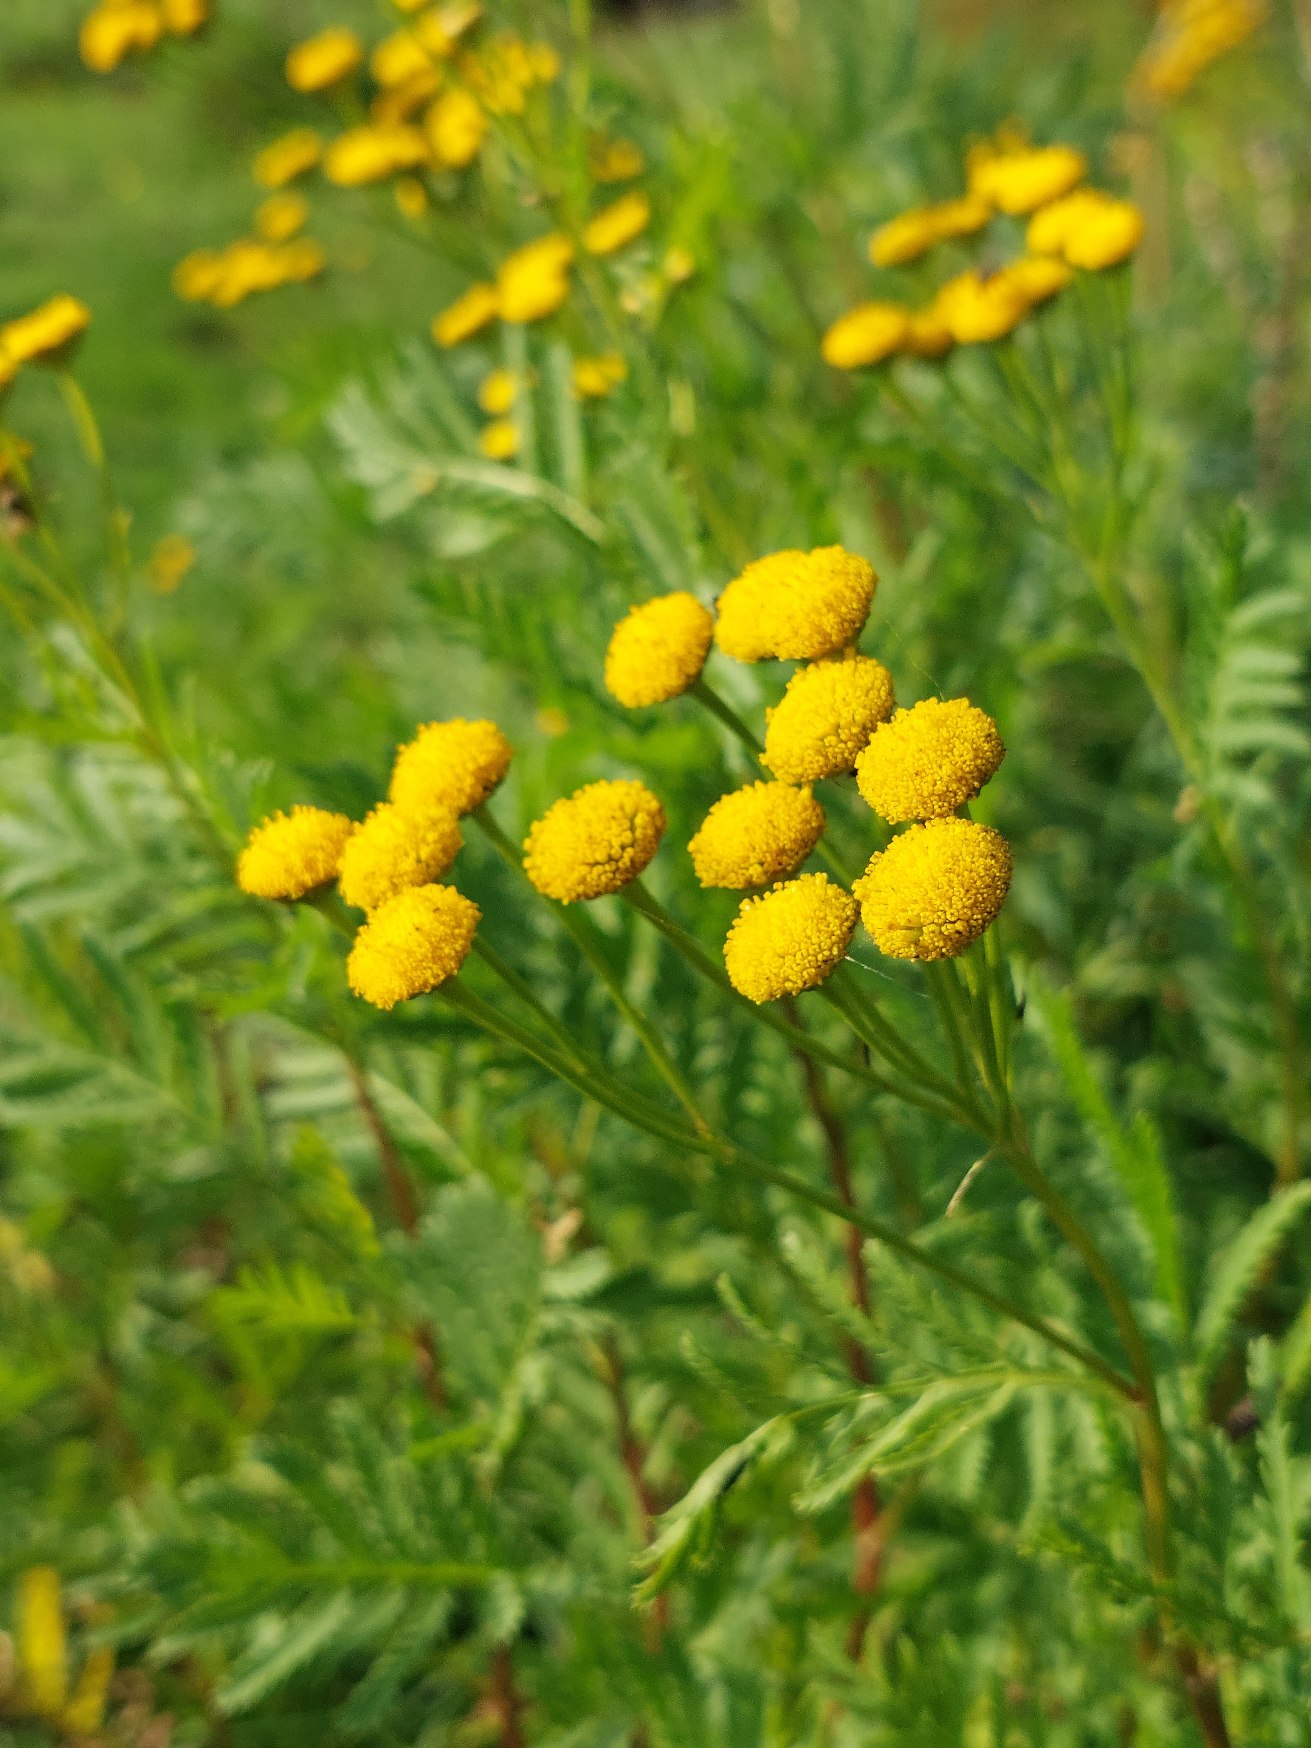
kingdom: Plantae
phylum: Tracheophyta
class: Magnoliopsida
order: Asterales
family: Asteraceae
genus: Tanacetum
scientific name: Tanacetum vulgare
